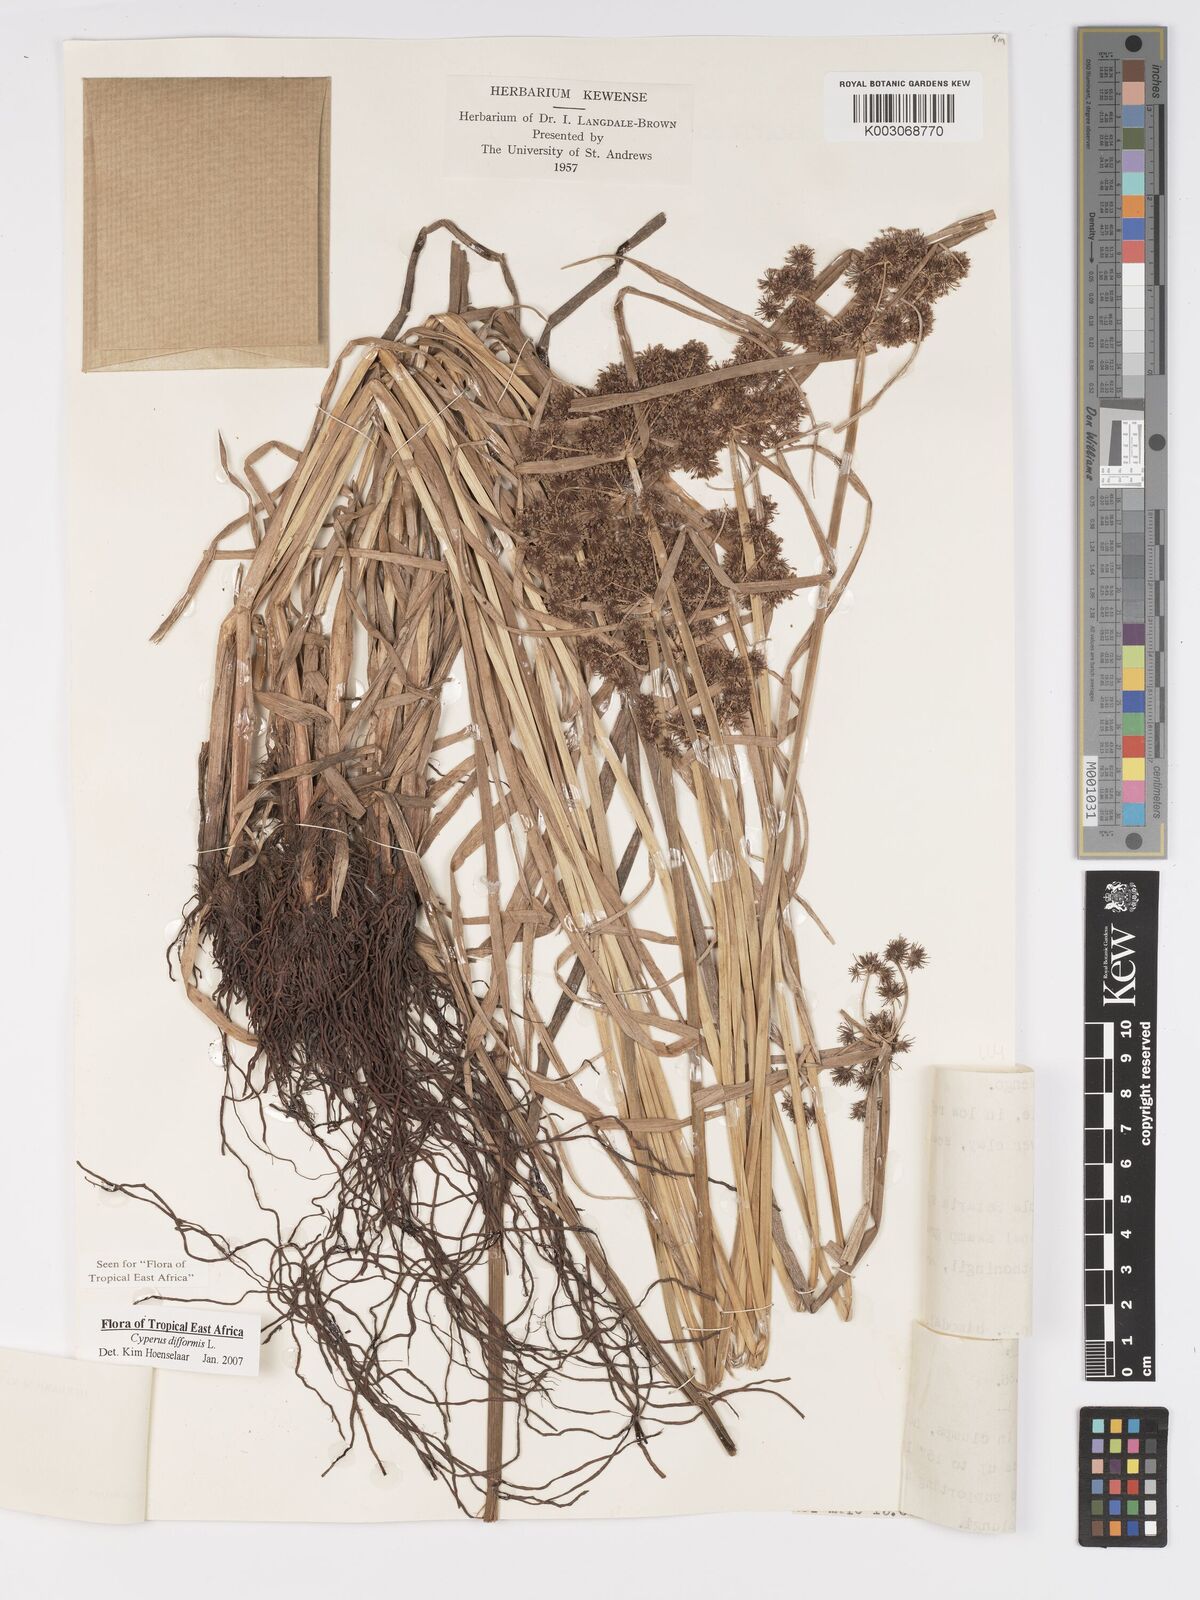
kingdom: Plantae
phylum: Tracheophyta
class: Liliopsida
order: Poales
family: Cyperaceae
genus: Cyperus
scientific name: Cyperus difformis
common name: Variable flatsedge
